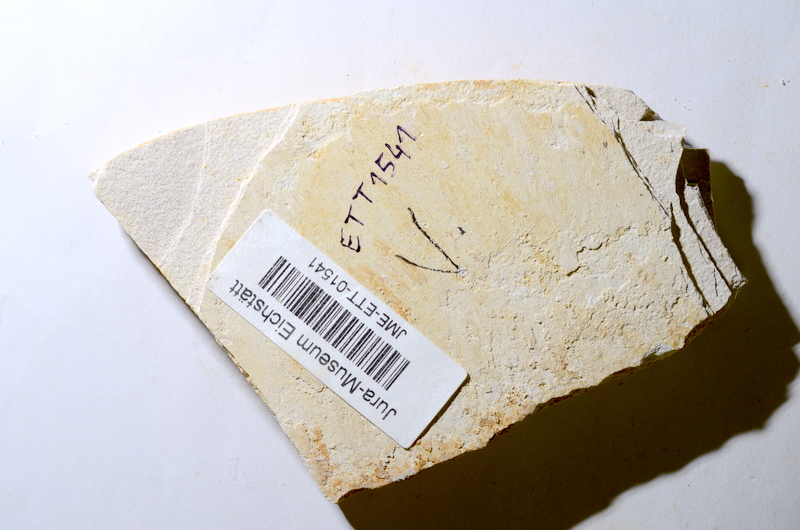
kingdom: Animalia
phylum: Chordata
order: Salmoniformes
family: Orthogonikleithridae
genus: Orthogonikleithrus
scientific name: Orthogonikleithrus hoelli
